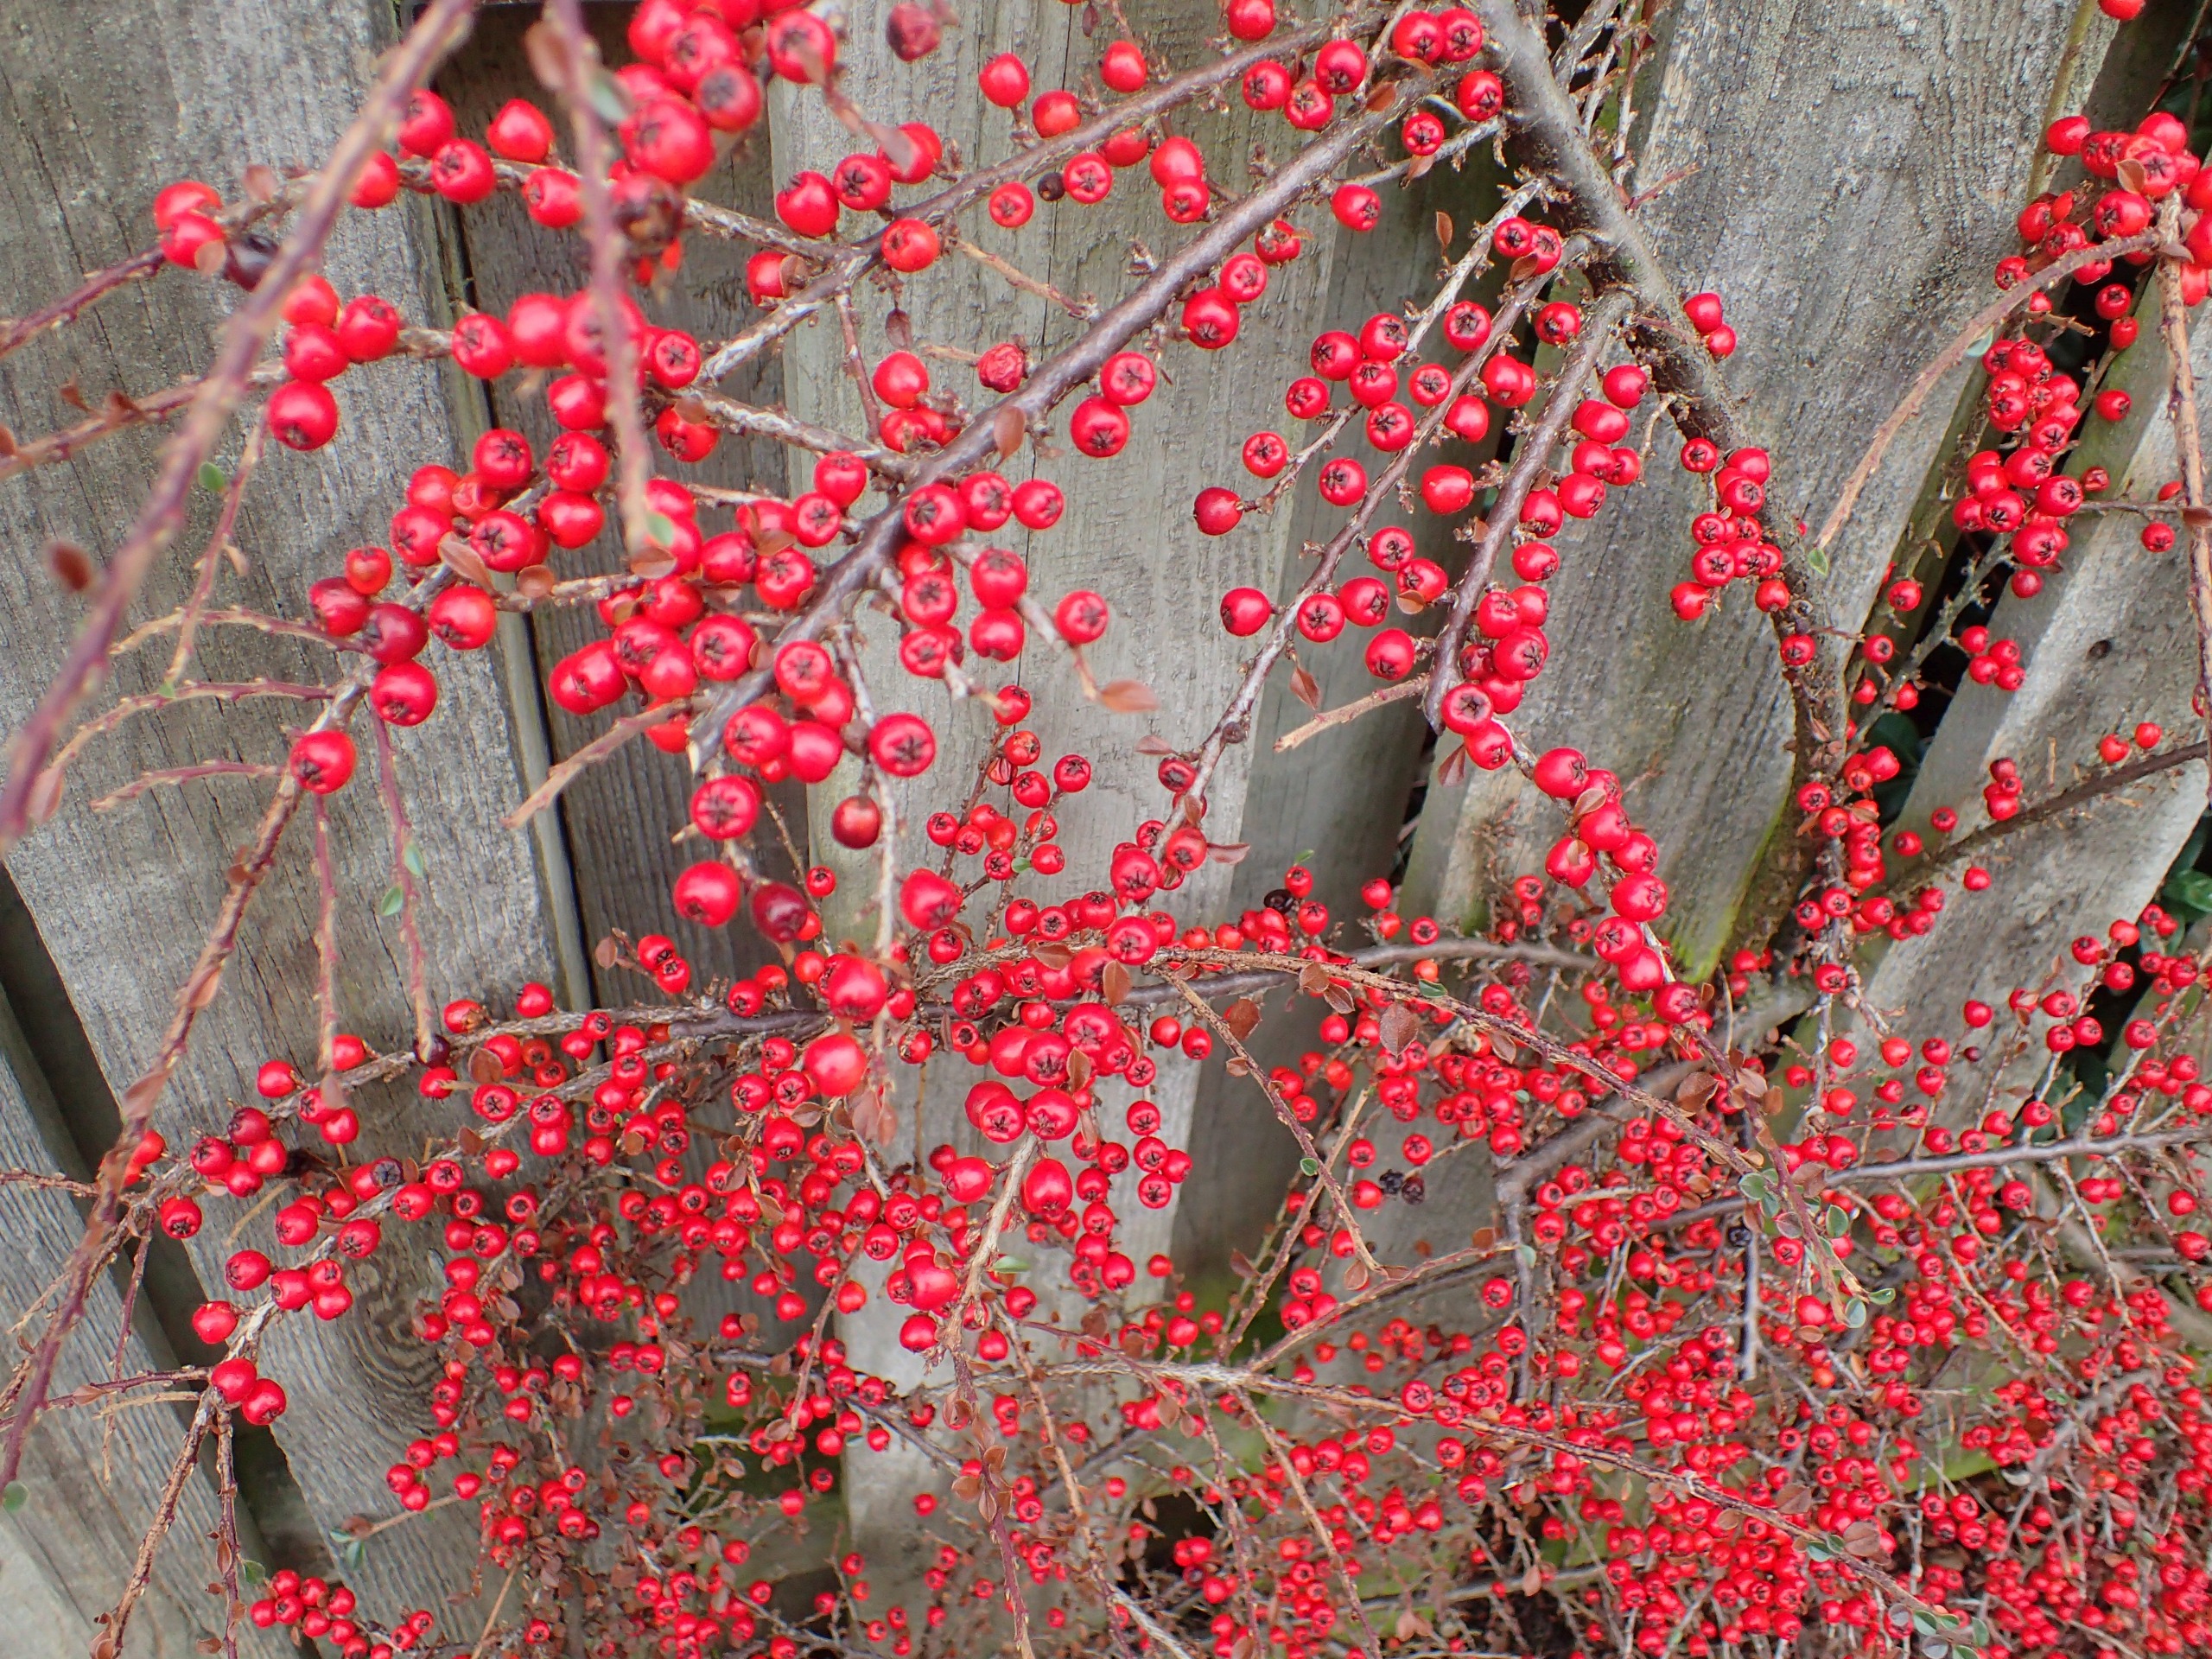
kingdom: Plantae
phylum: Tracheophyta
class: Magnoliopsida
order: Rosales
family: Rosaceae
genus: Cotoneaster
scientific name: Cotoneaster horizontalis
